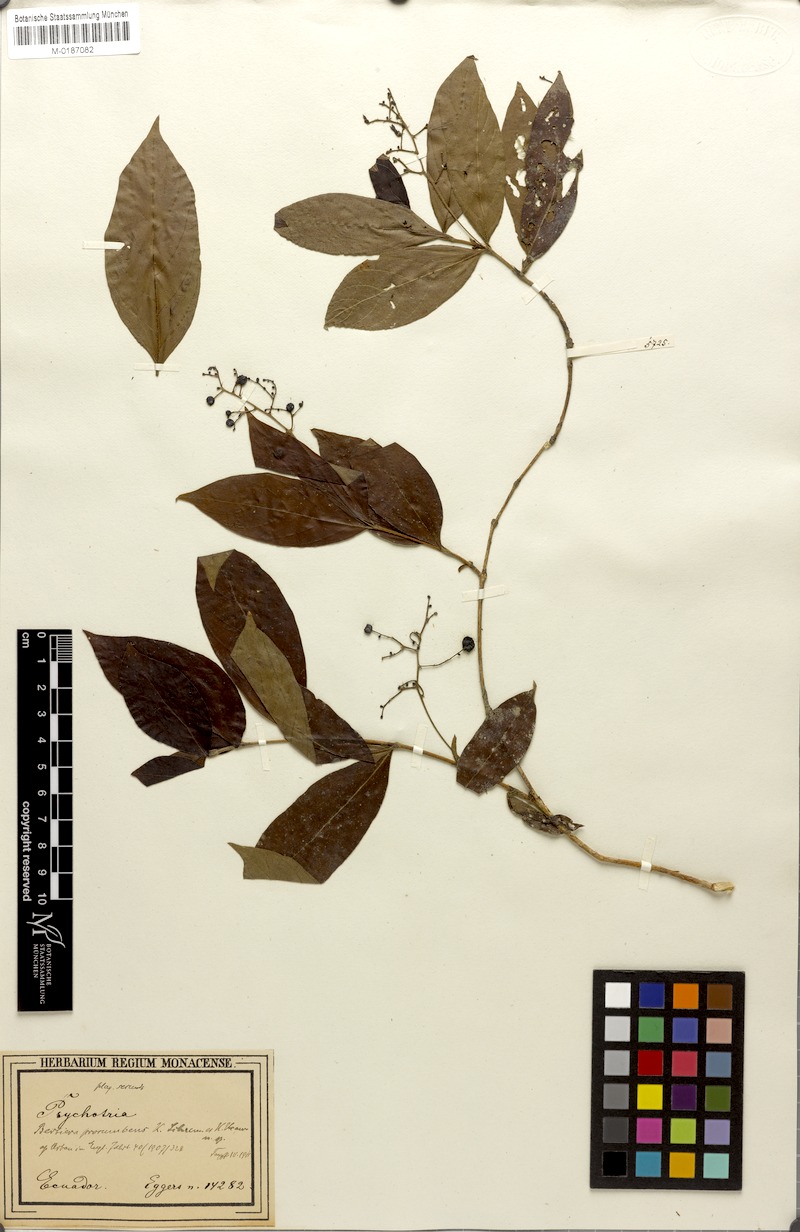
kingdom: Plantae
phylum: Tracheophyta
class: Magnoliopsida
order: Gentianales
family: Rubiaceae
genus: Bertiera
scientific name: Bertiera procumbens
